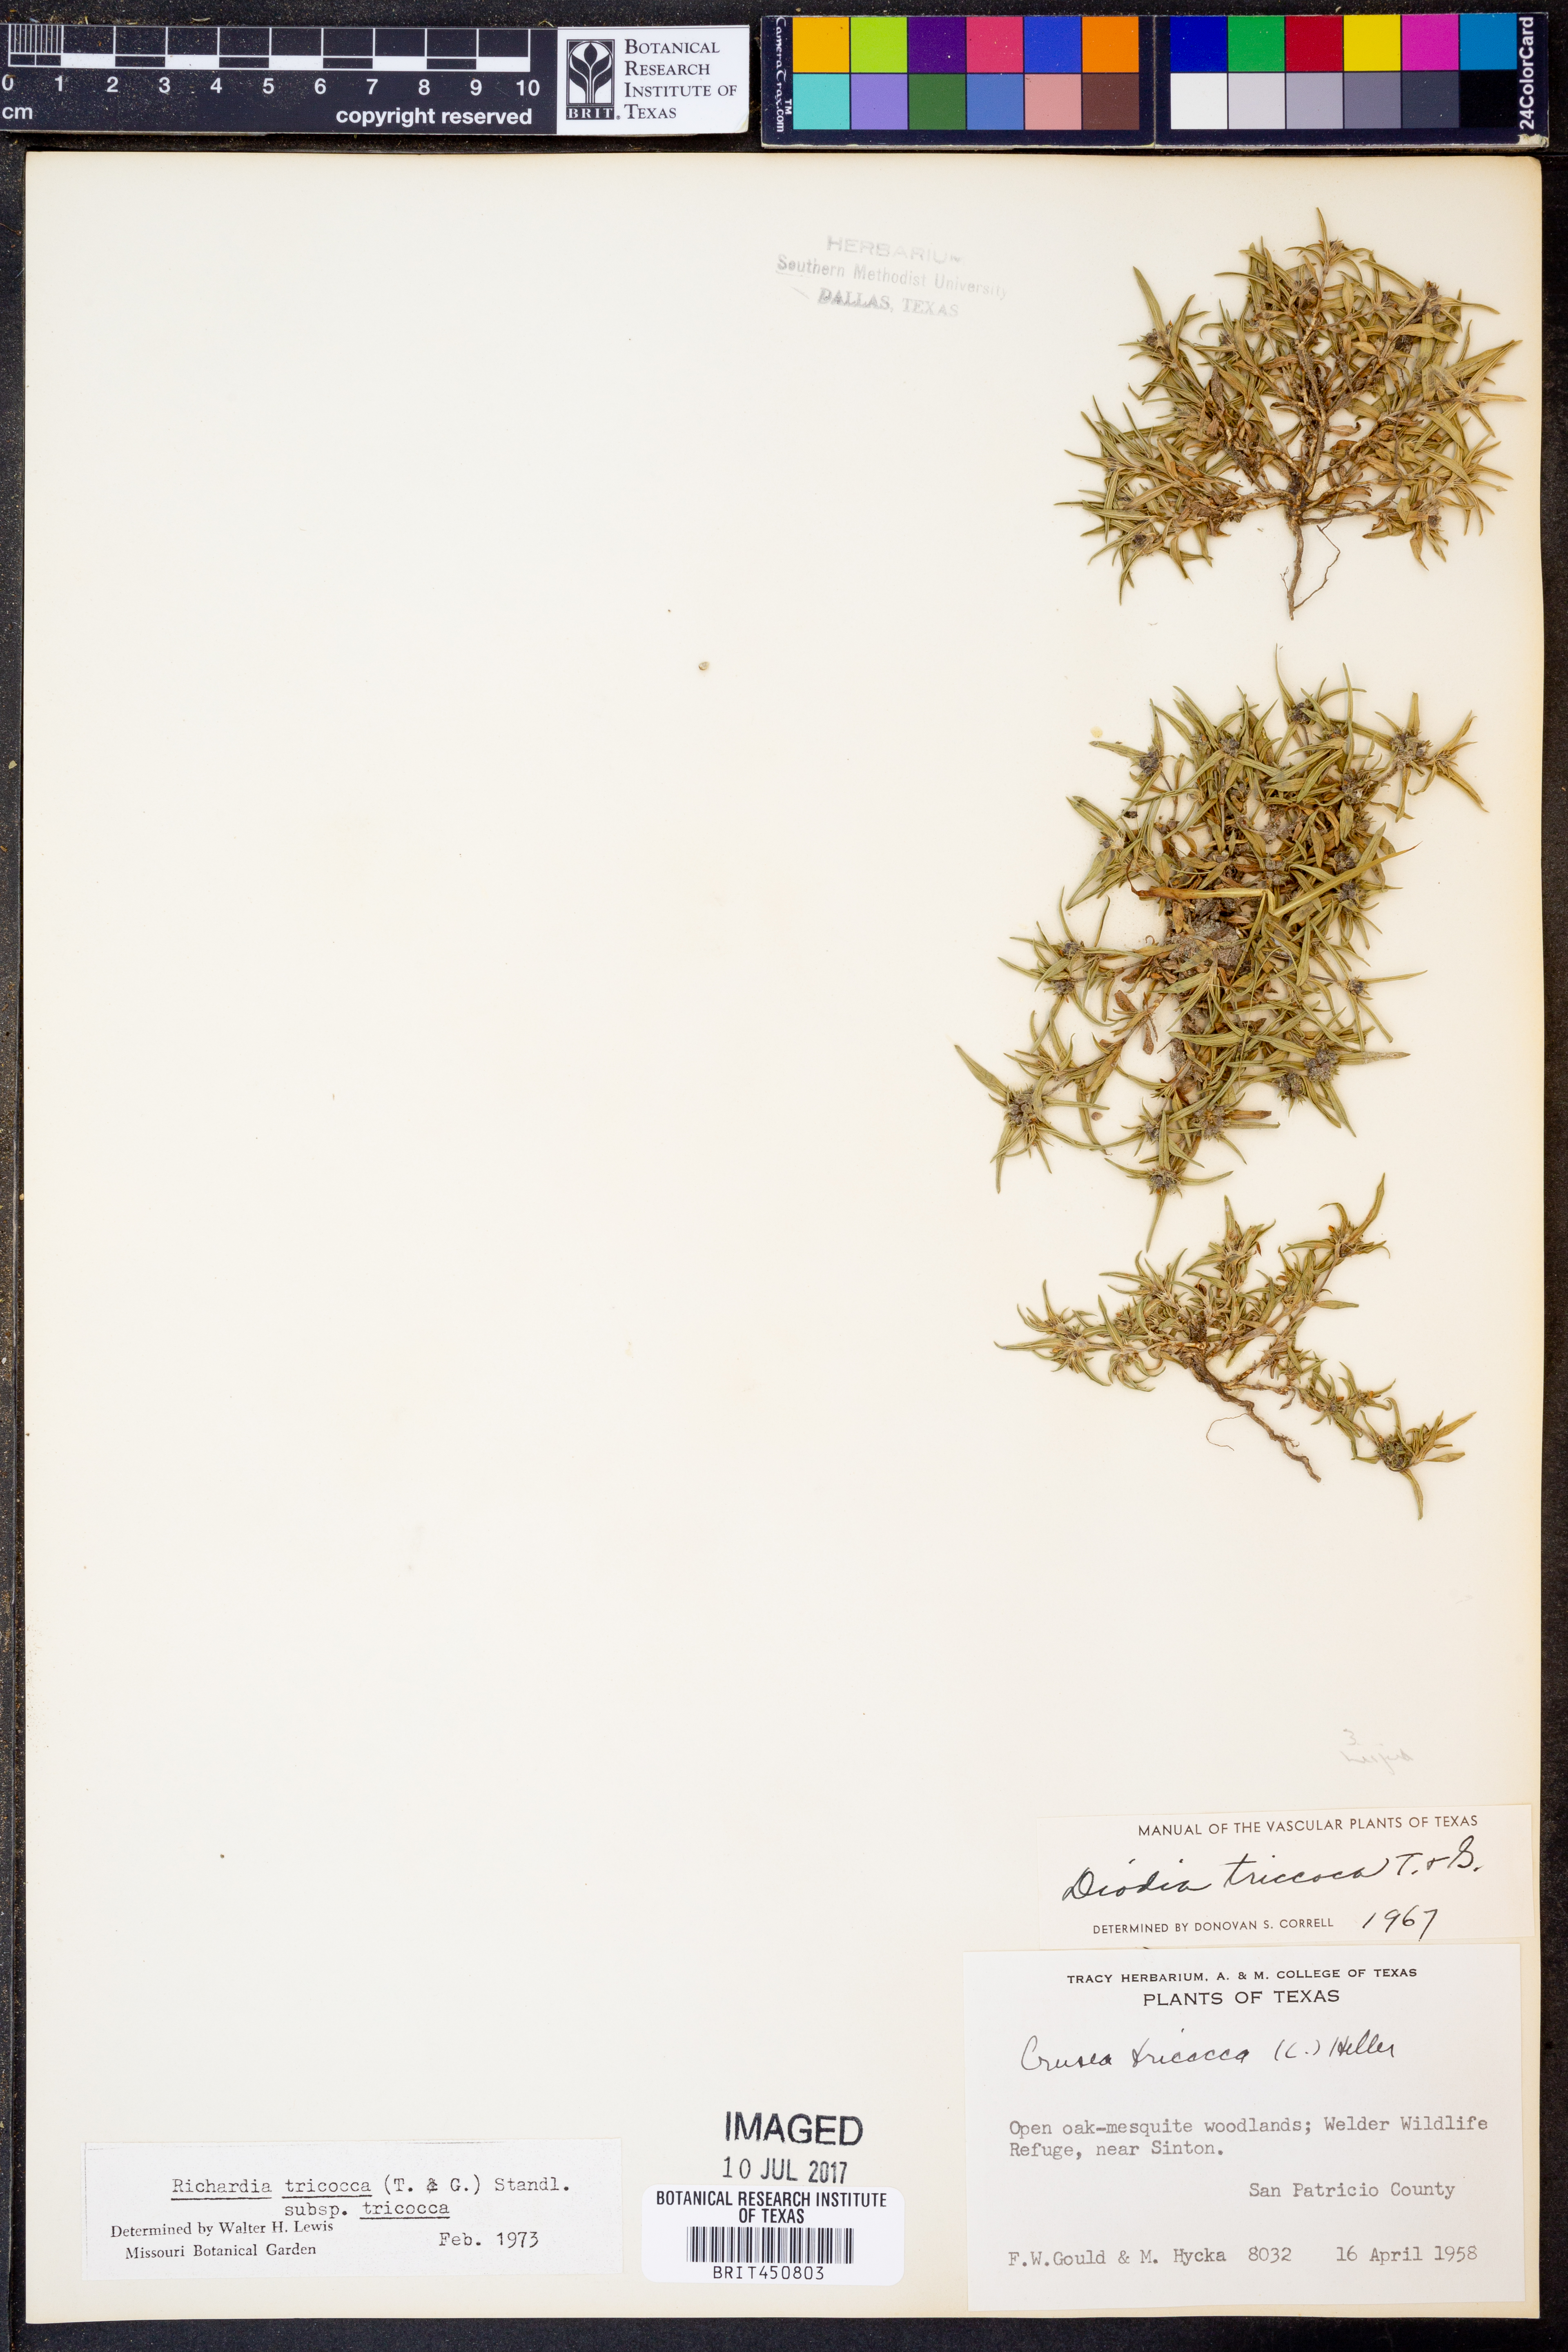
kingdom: Plantae
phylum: Tracheophyta
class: Magnoliopsida
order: Gentianales
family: Rubiaceae
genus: Richardia
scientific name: Richardia tricocca
